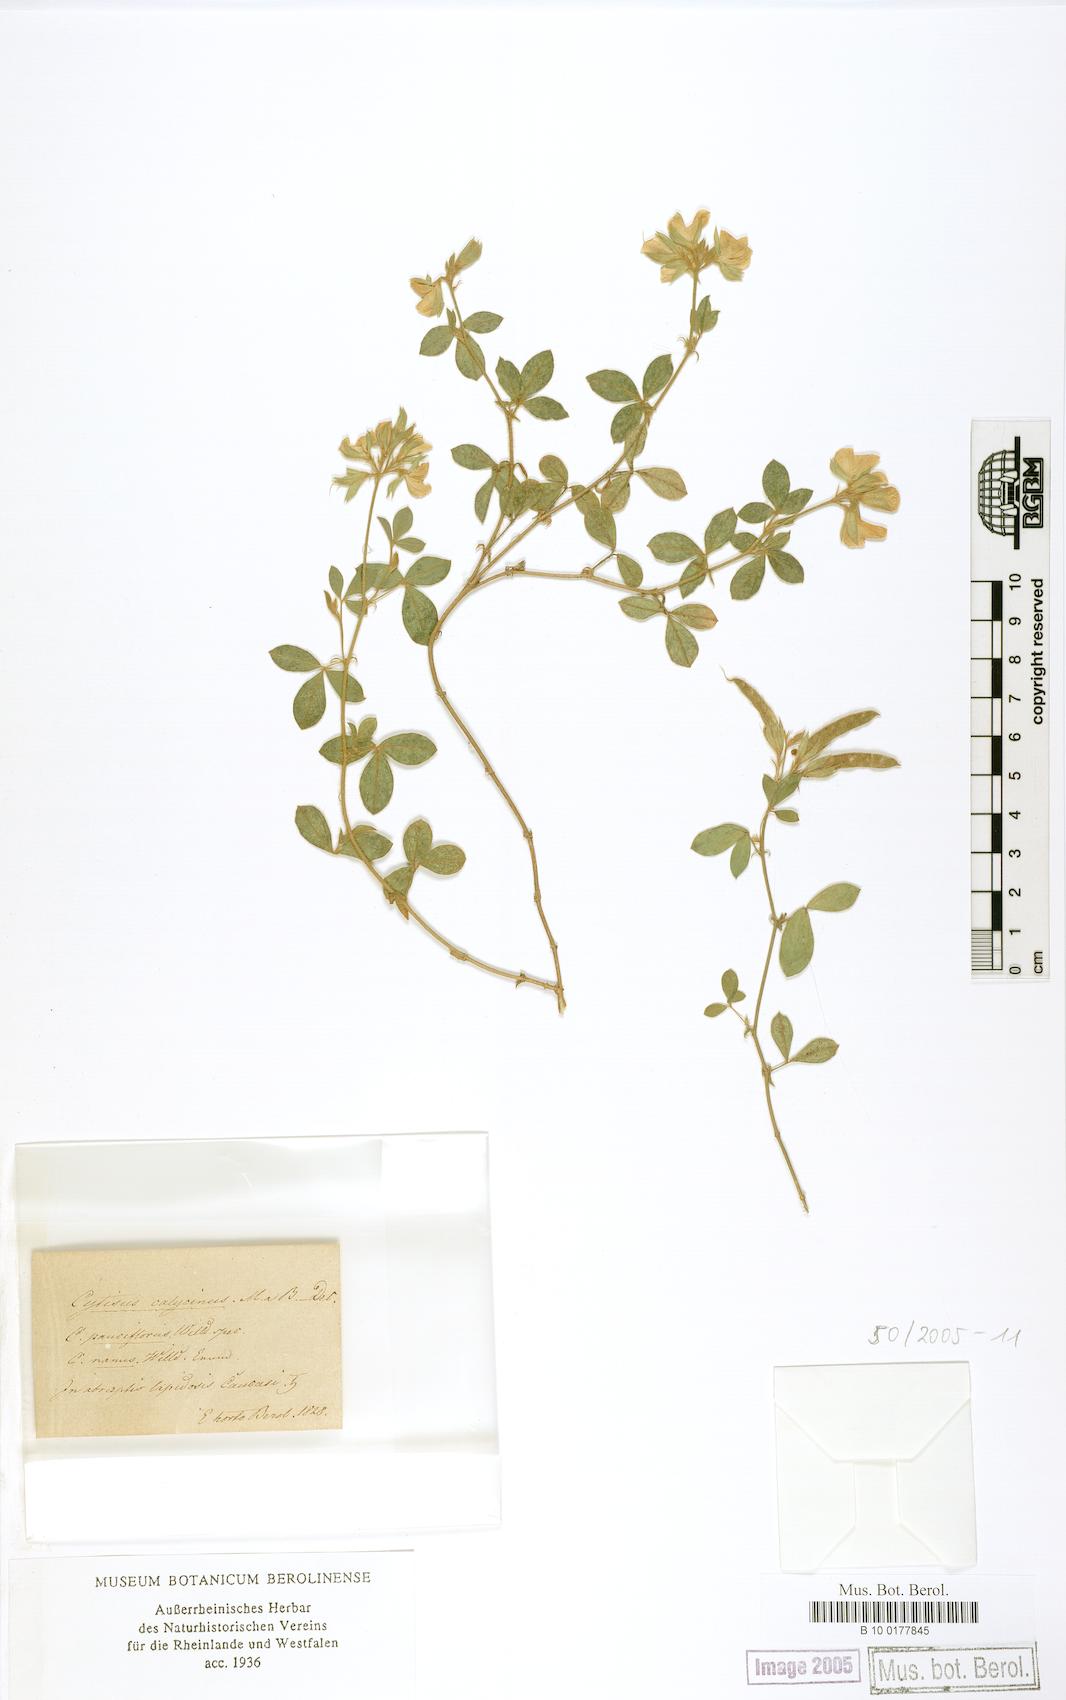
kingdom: Plantae
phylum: Tracheophyta
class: Magnoliopsida
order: Fabales
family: Fabaceae
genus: Argyrolobium
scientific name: Argyrolobium biebersteinii
